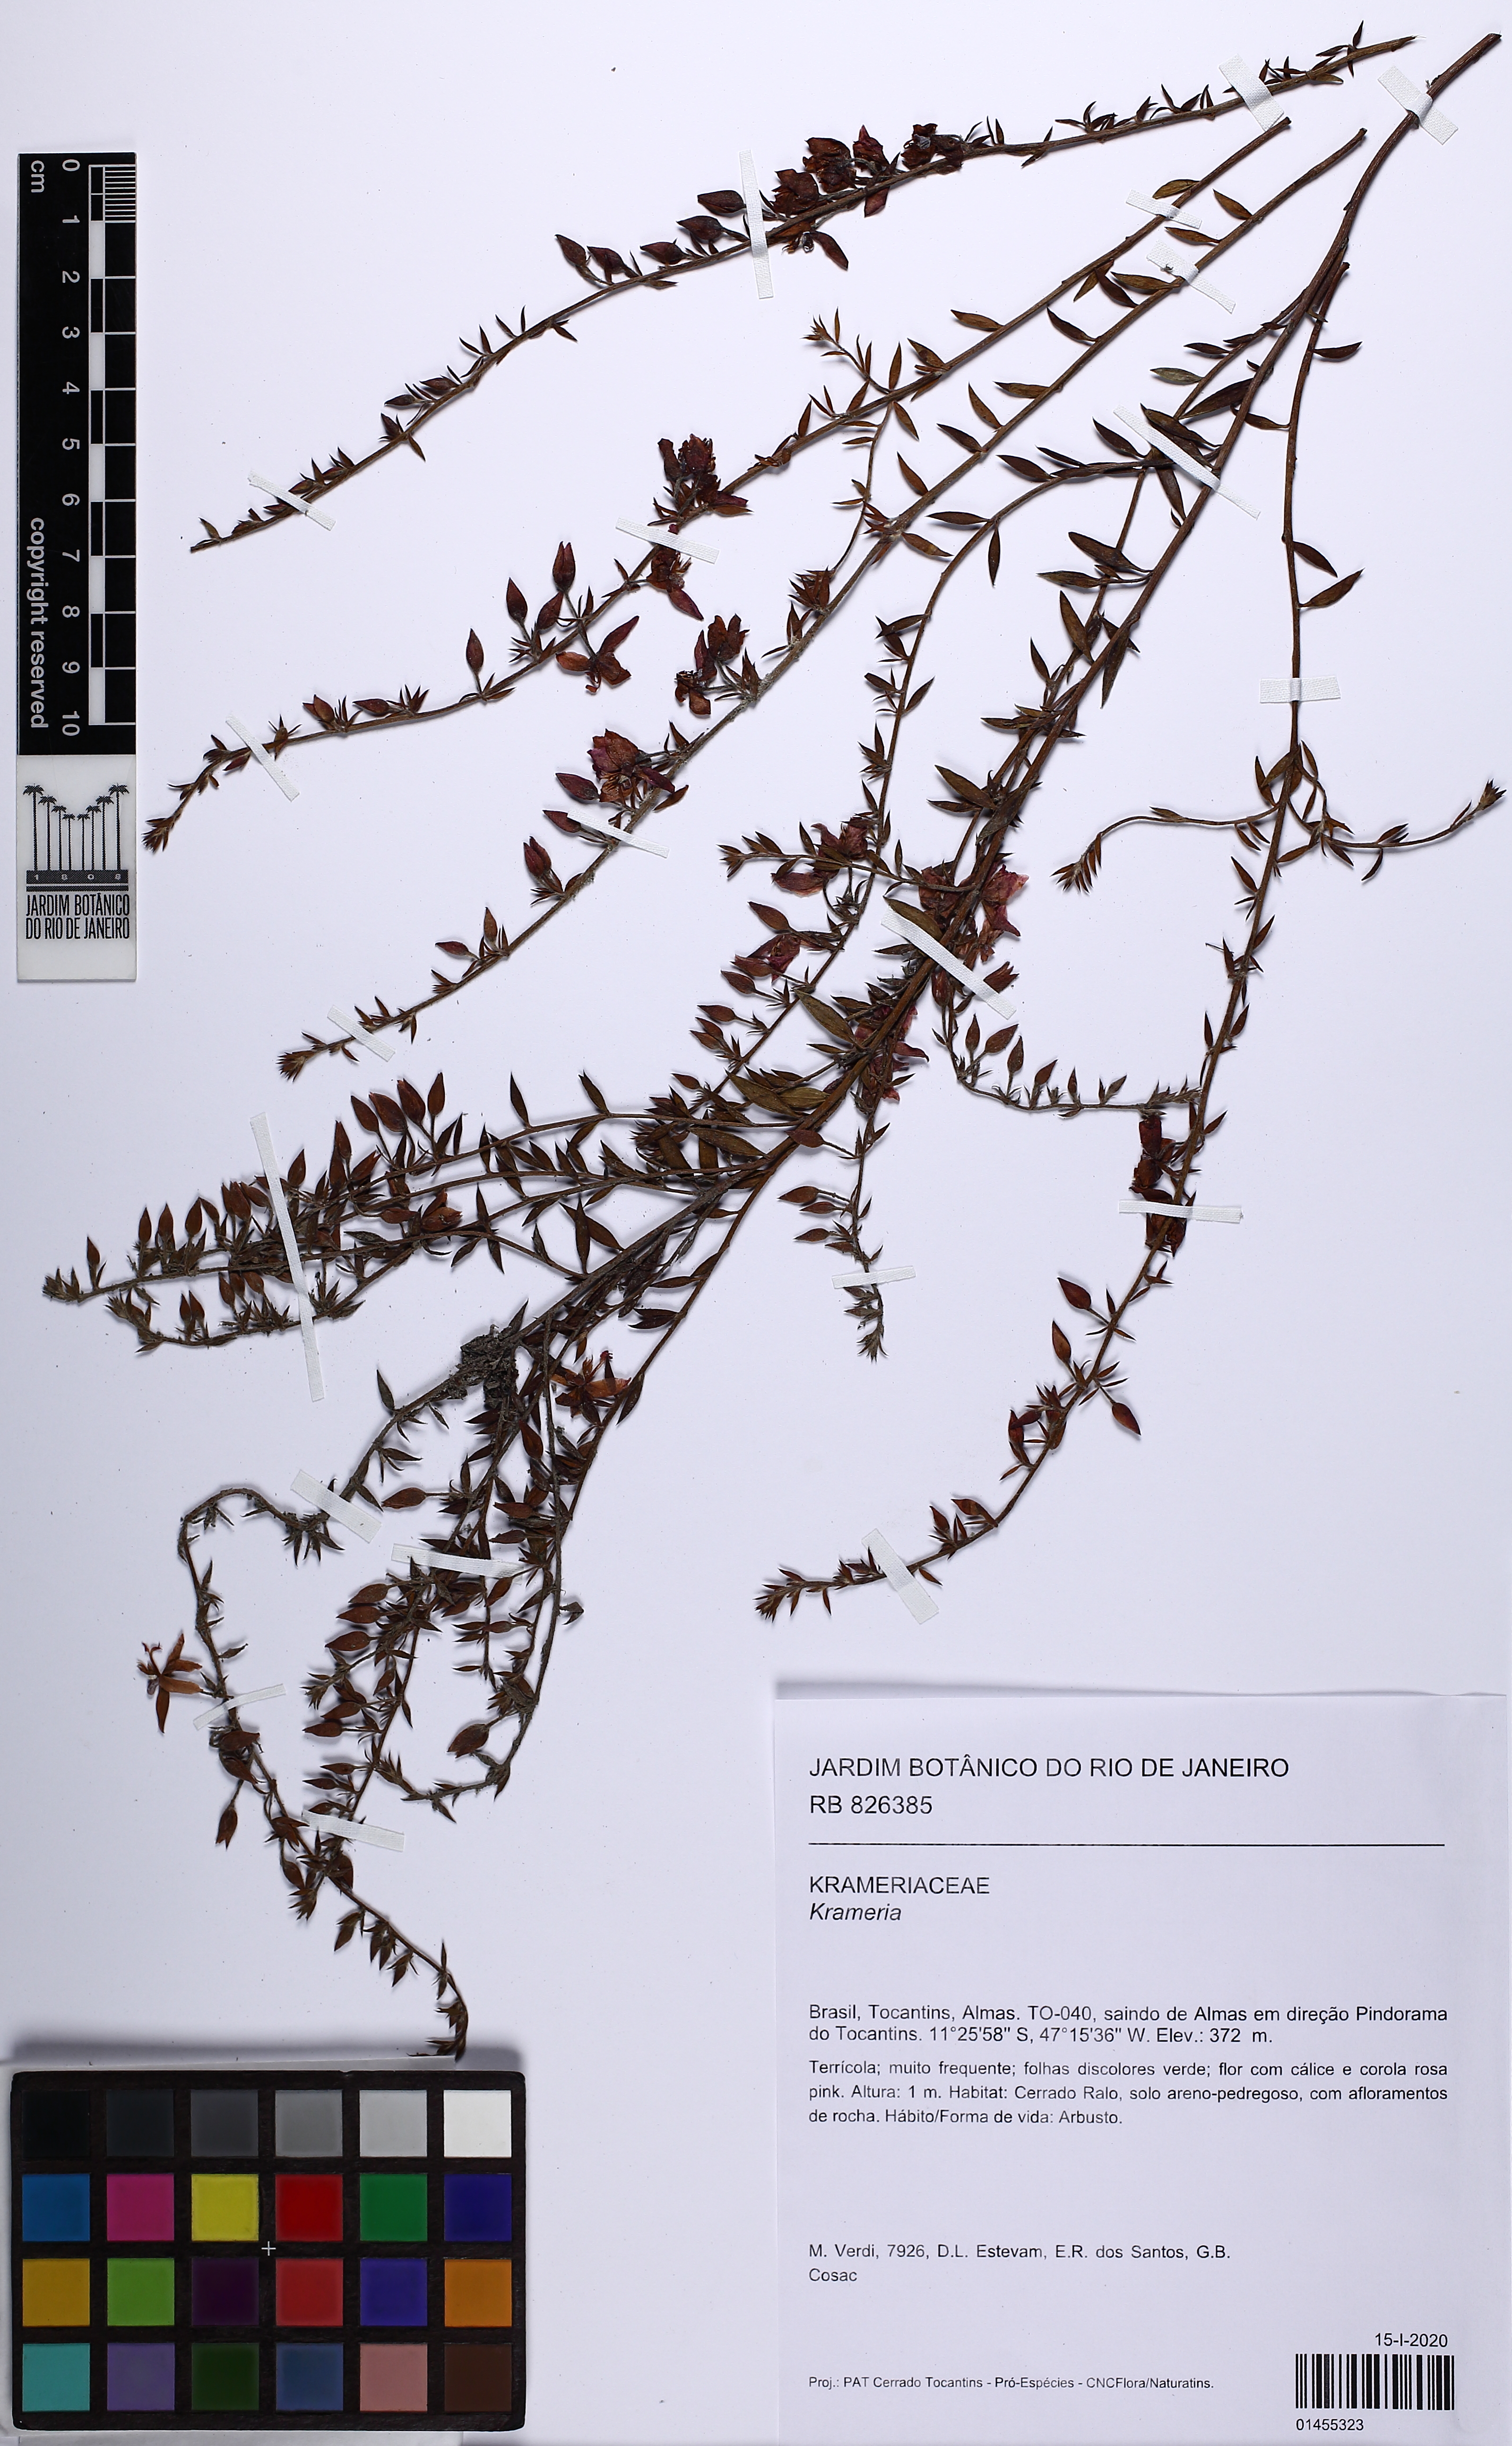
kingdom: Plantae
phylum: Tracheophyta
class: Magnoliopsida
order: Zygophyllales
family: Krameriaceae
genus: Krameria
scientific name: Krameria
